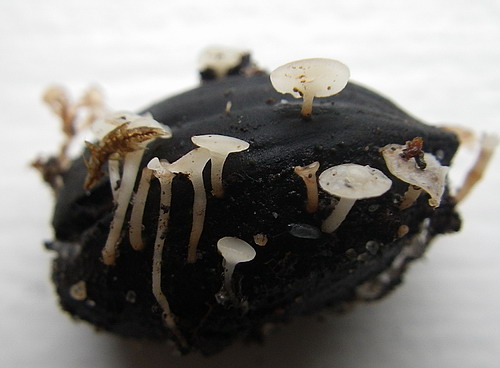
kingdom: Fungi
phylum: Ascomycota
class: Leotiomycetes
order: Helotiales
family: Helotiaceae
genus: Hymenoscyphus
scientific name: Hymenoscyphus fructigenus
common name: frugt-stilkskive
